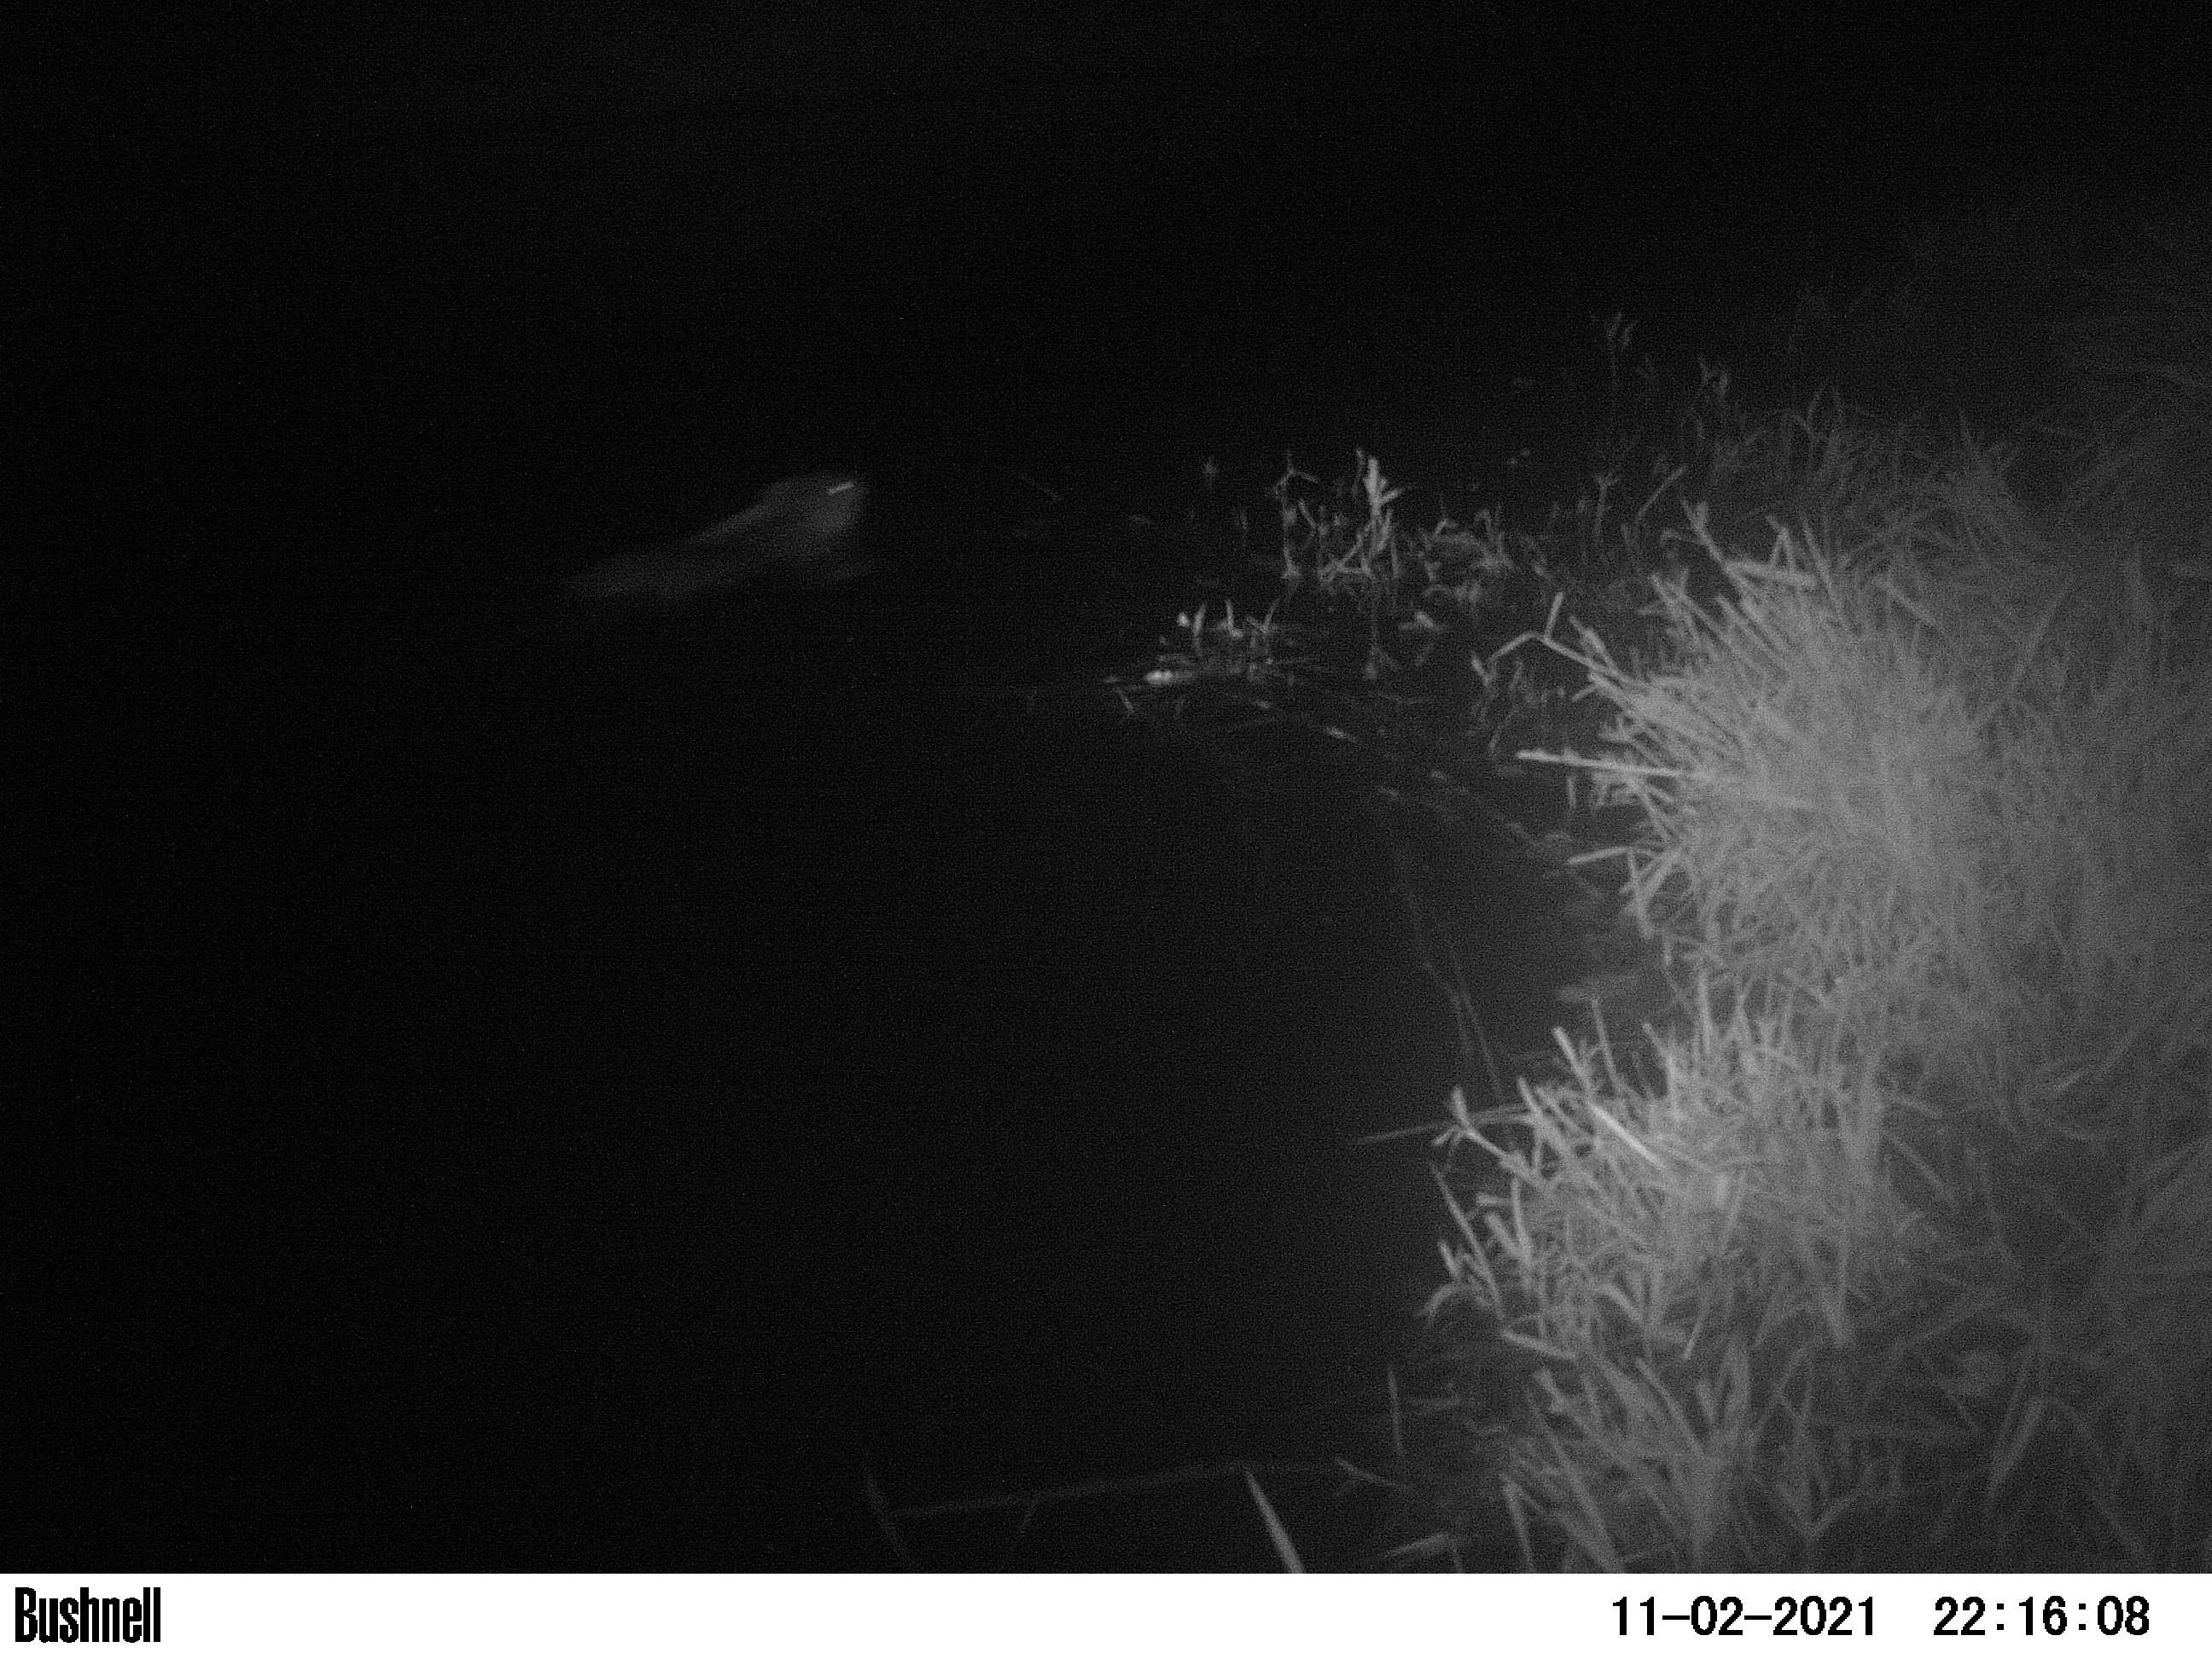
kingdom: Animalia
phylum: Chordata
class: Mammalia
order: Rodentia
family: Cricetidae
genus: Ondatra
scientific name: Ondatra zibethicus
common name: Muskrat
